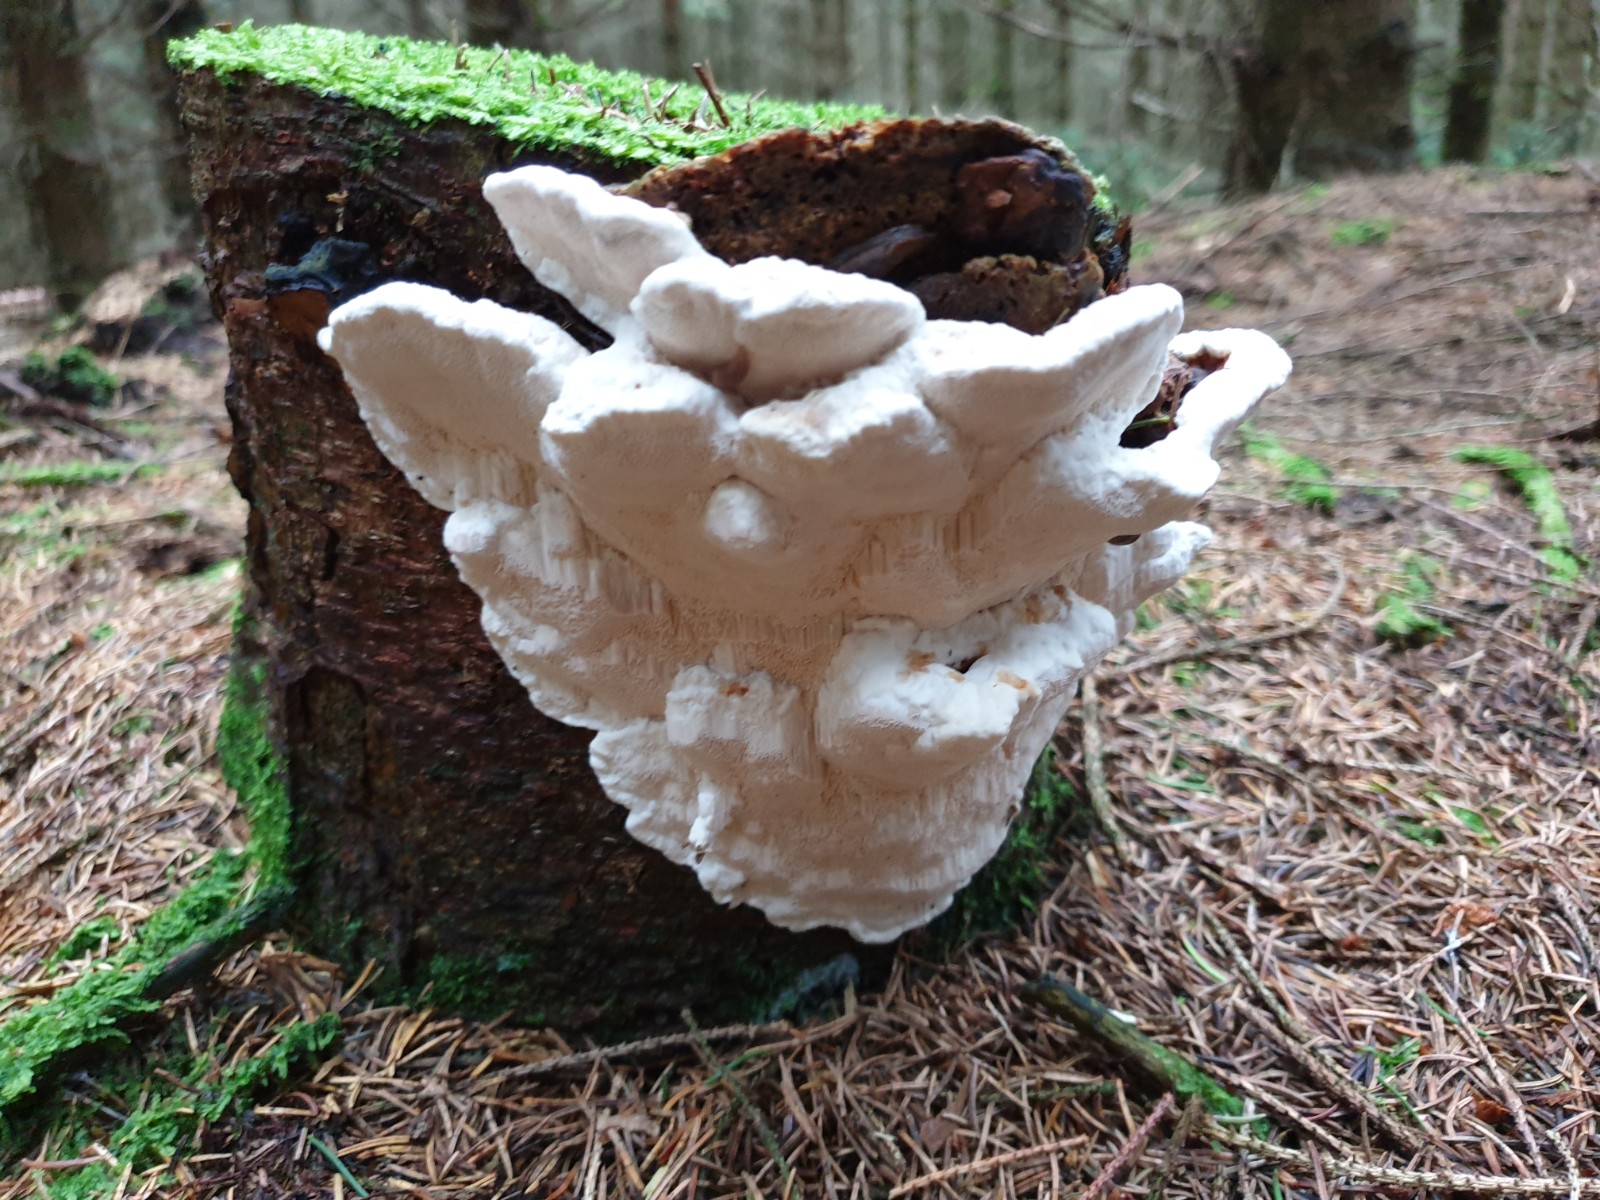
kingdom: Fungi
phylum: Basidiomycota
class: Agaricomycetes
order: Polyporales
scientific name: Polyporales
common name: poresvampordenen
